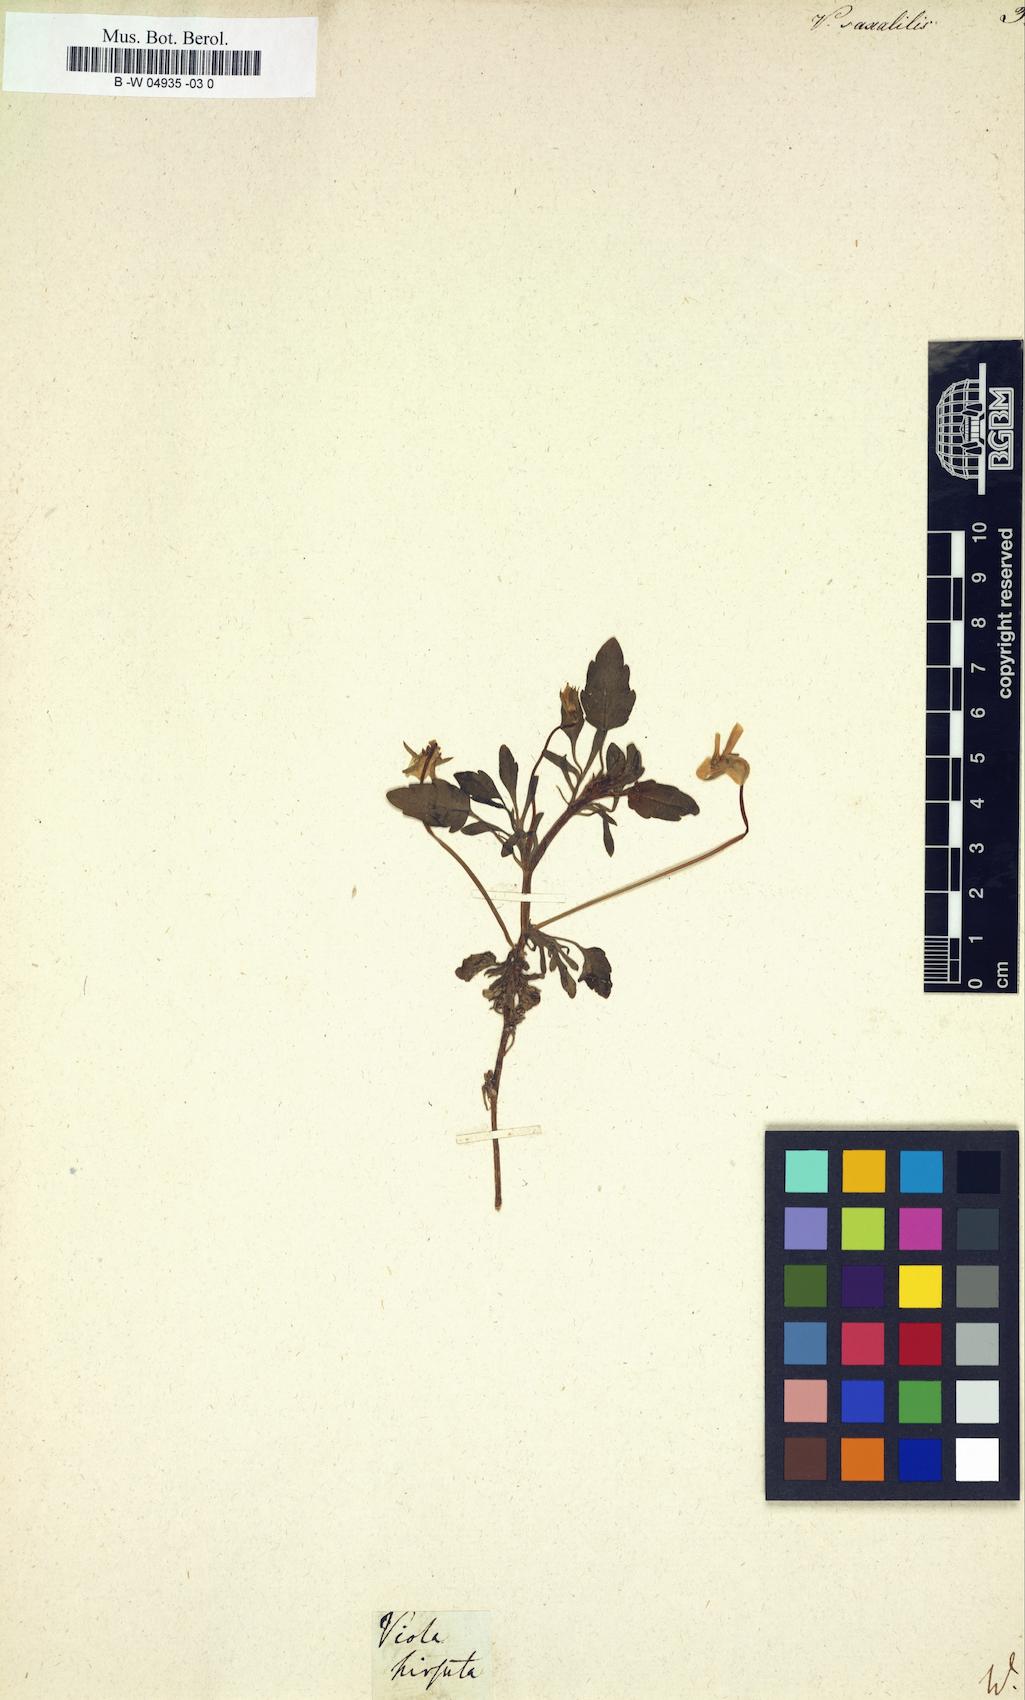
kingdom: Plantae
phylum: Tracheophyta
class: Magnoliopsida
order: Malpighiales
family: Violaceae
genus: Viola
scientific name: Viola saxatilis
